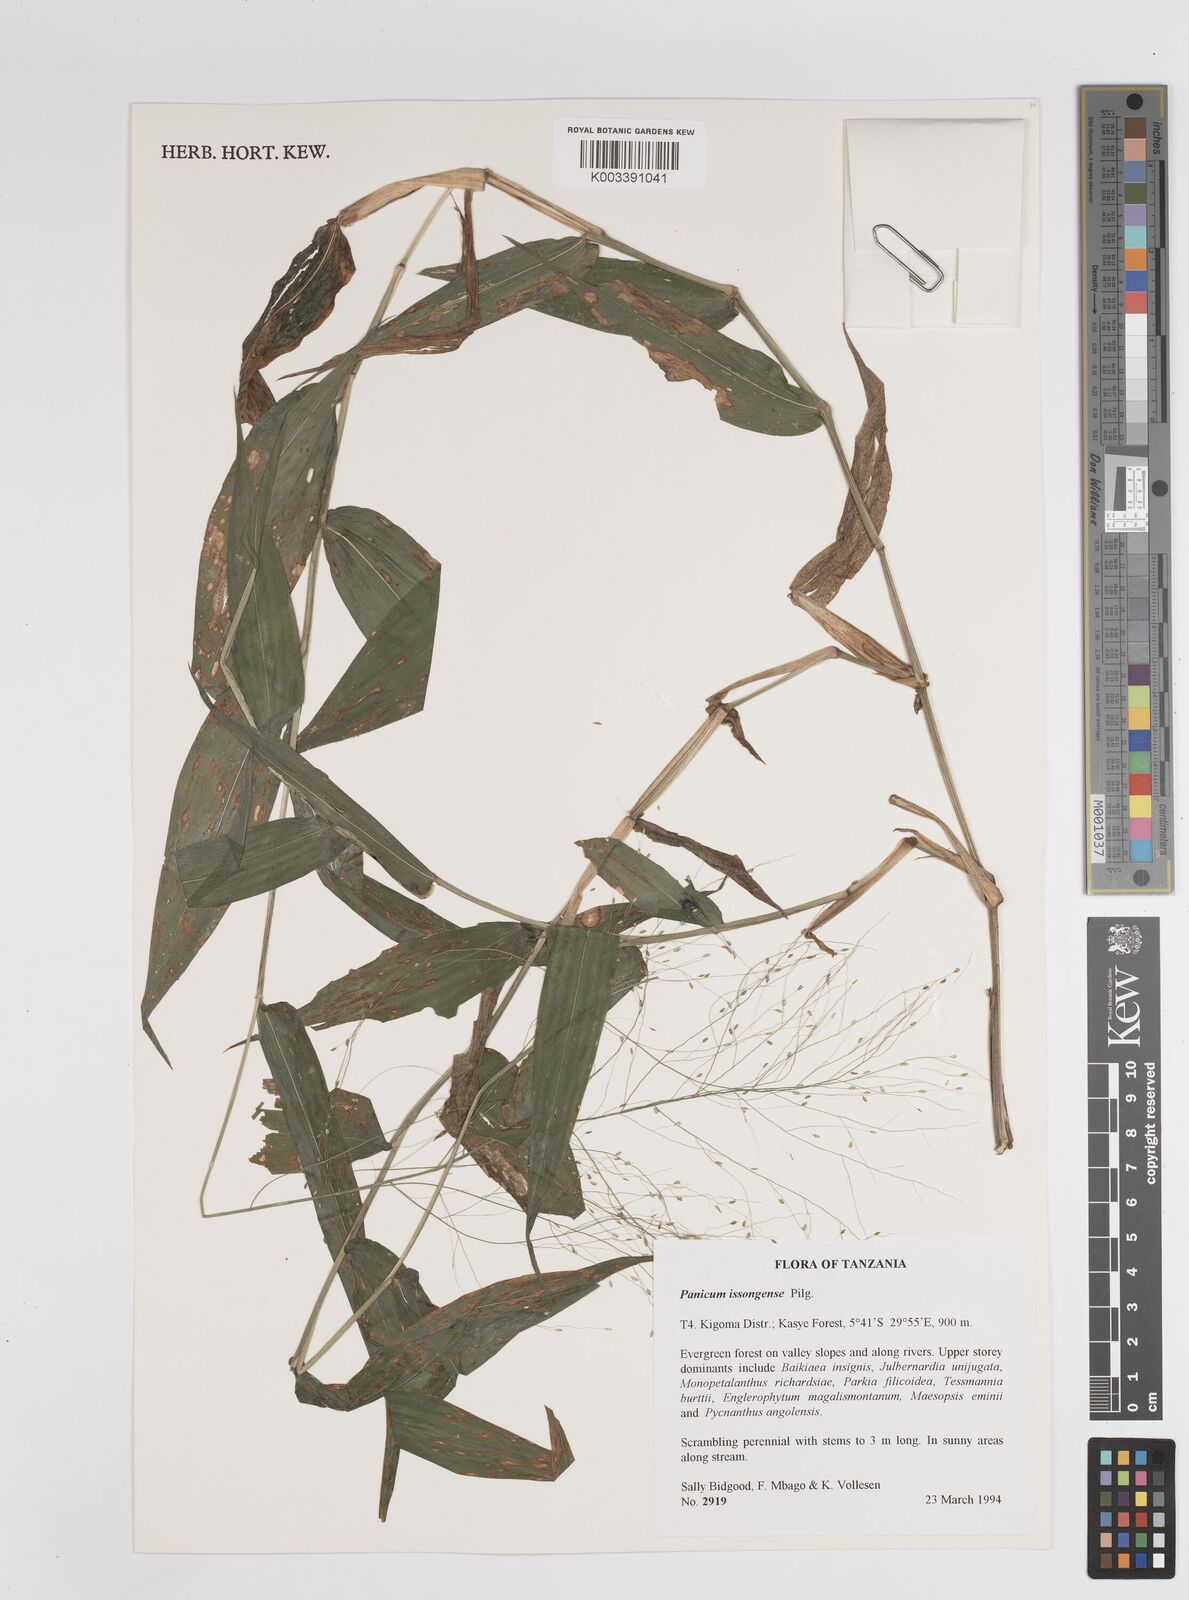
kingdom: Plantae
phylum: Tracheophyta
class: Liliopsida
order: Poales
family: Poaceae
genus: Panicum
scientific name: Panicum issongense
